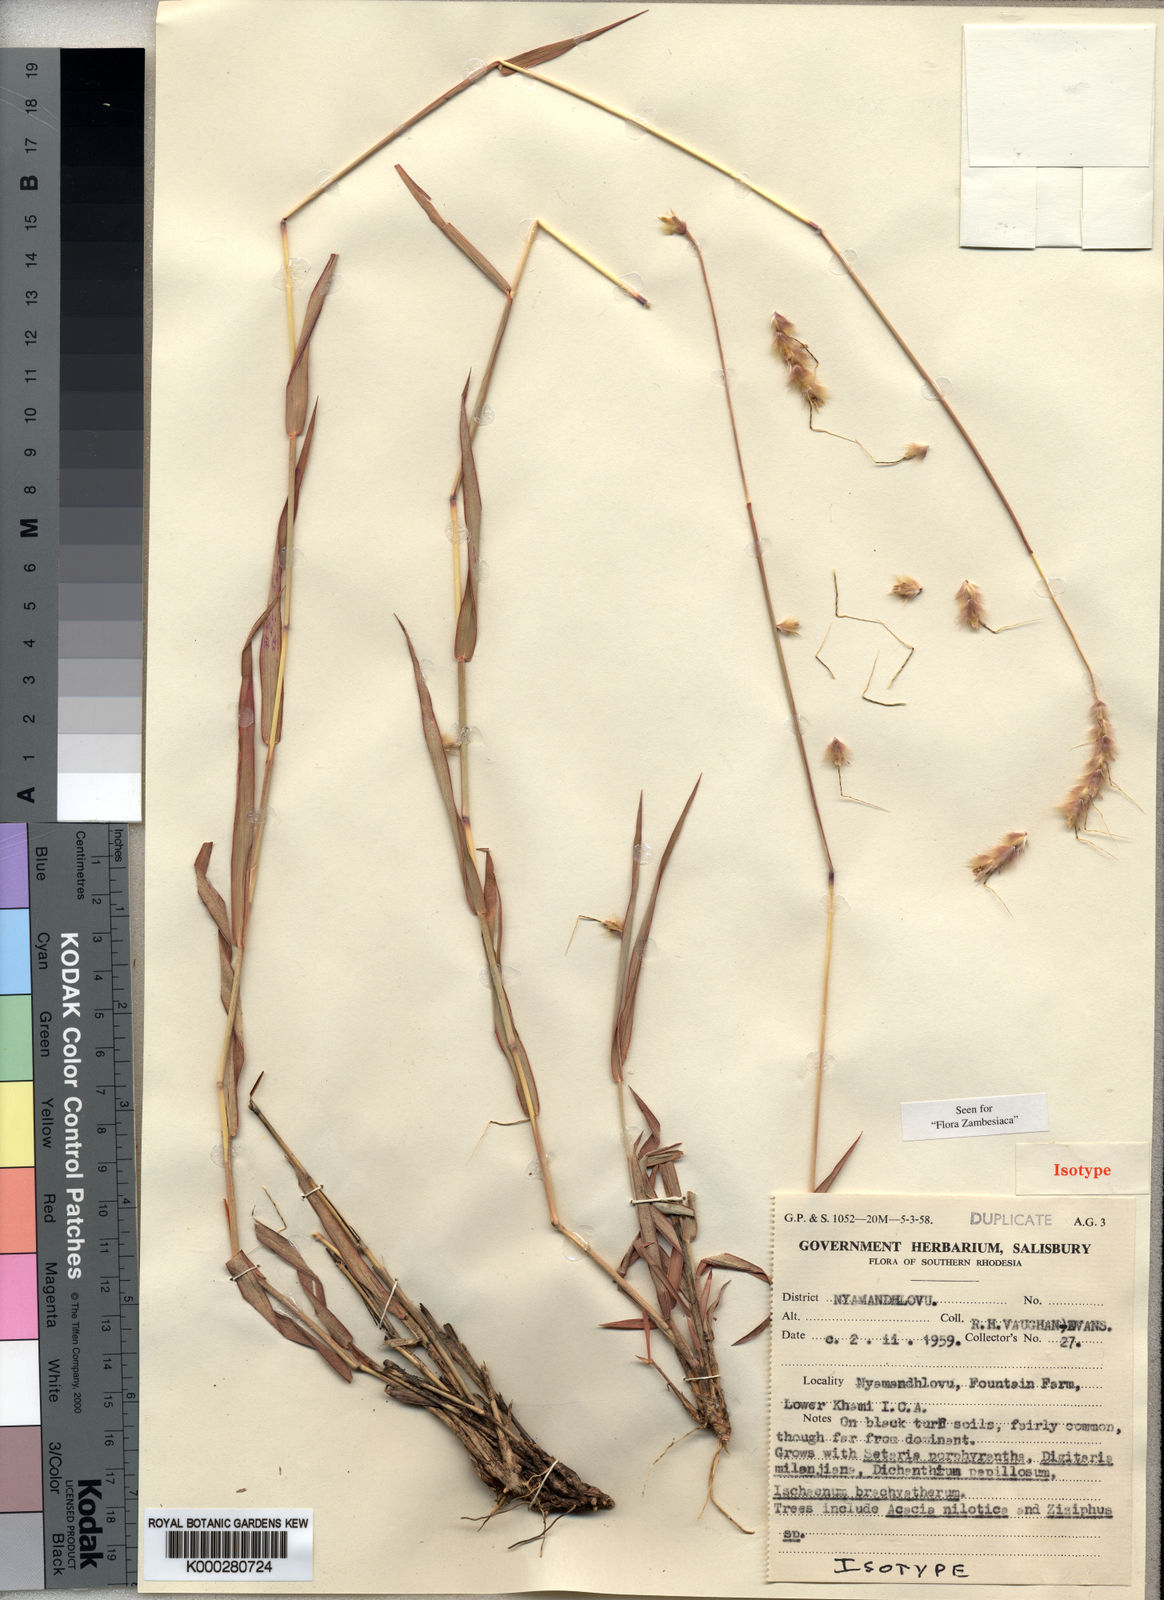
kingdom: Plantae
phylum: Tracheophyta
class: Liliopsida
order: Poales
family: Poaceae
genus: Ischaemum
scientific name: Ischaemum roseotomentosum
